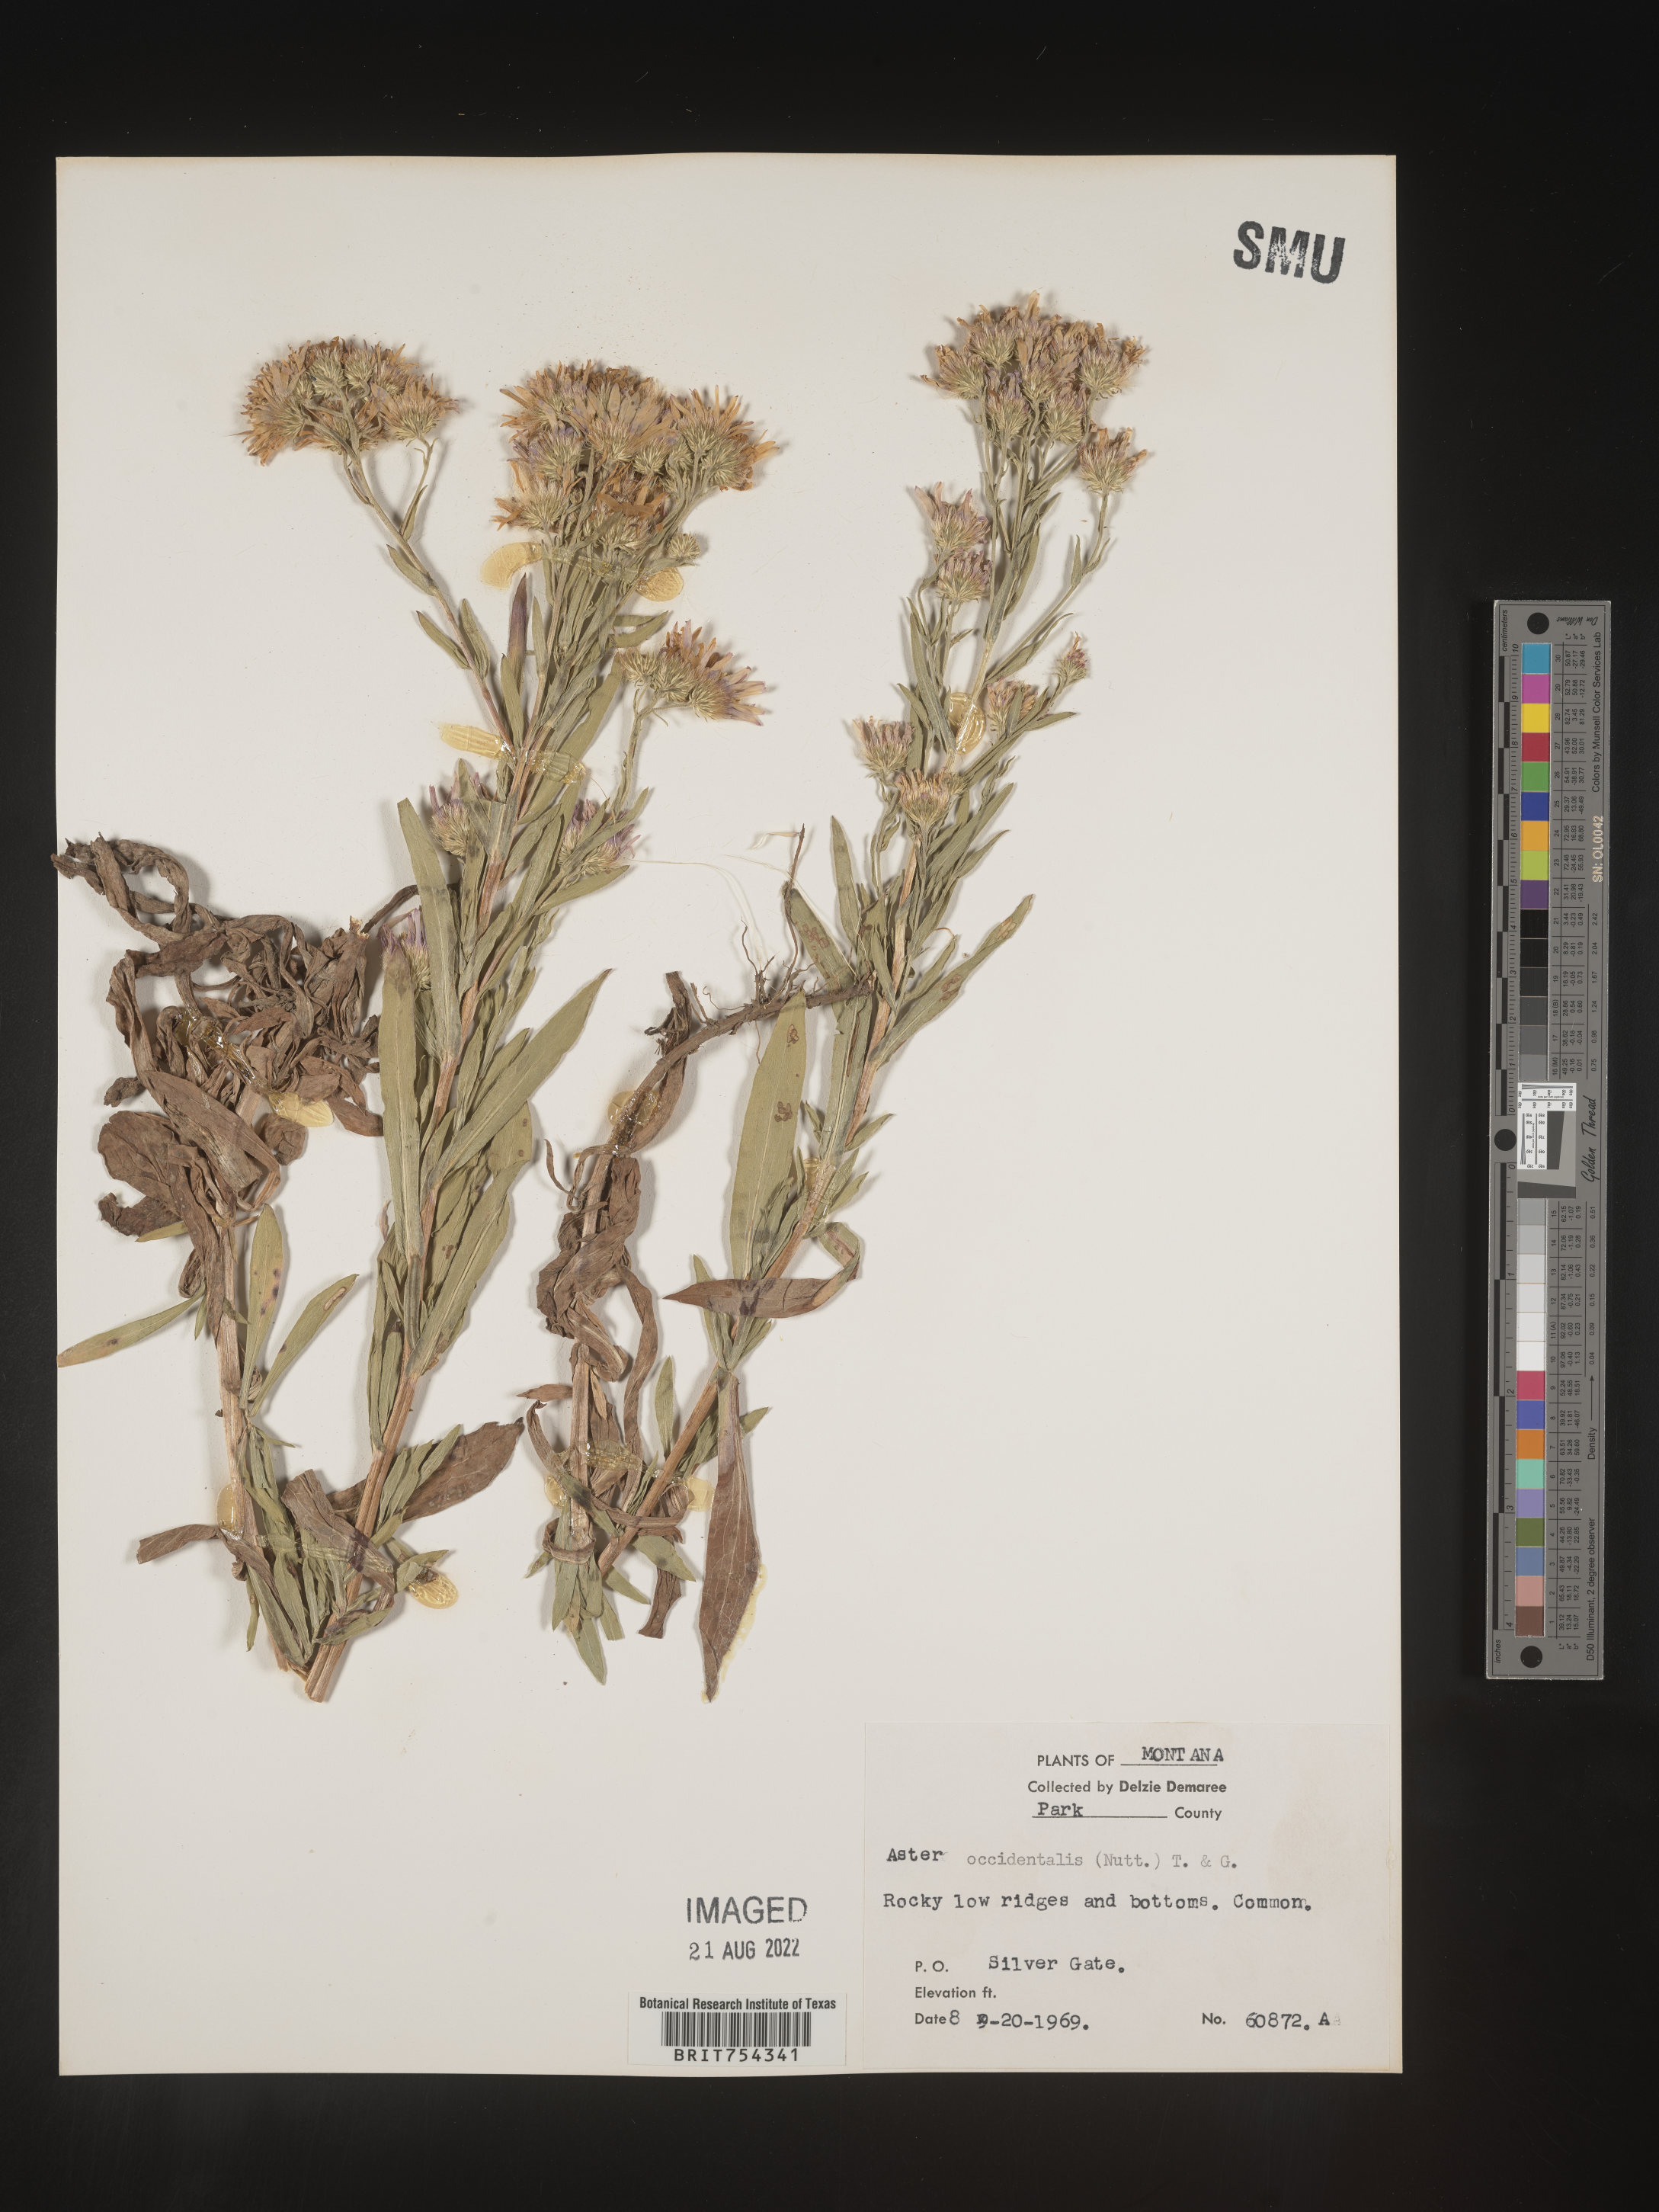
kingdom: Plantae
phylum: Tracheophyta
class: Magnoliopsida
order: Asterales
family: Asteraceae
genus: Symphyotrichum
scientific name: Symphyotrichum spathulatum
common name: Western mountain aster
